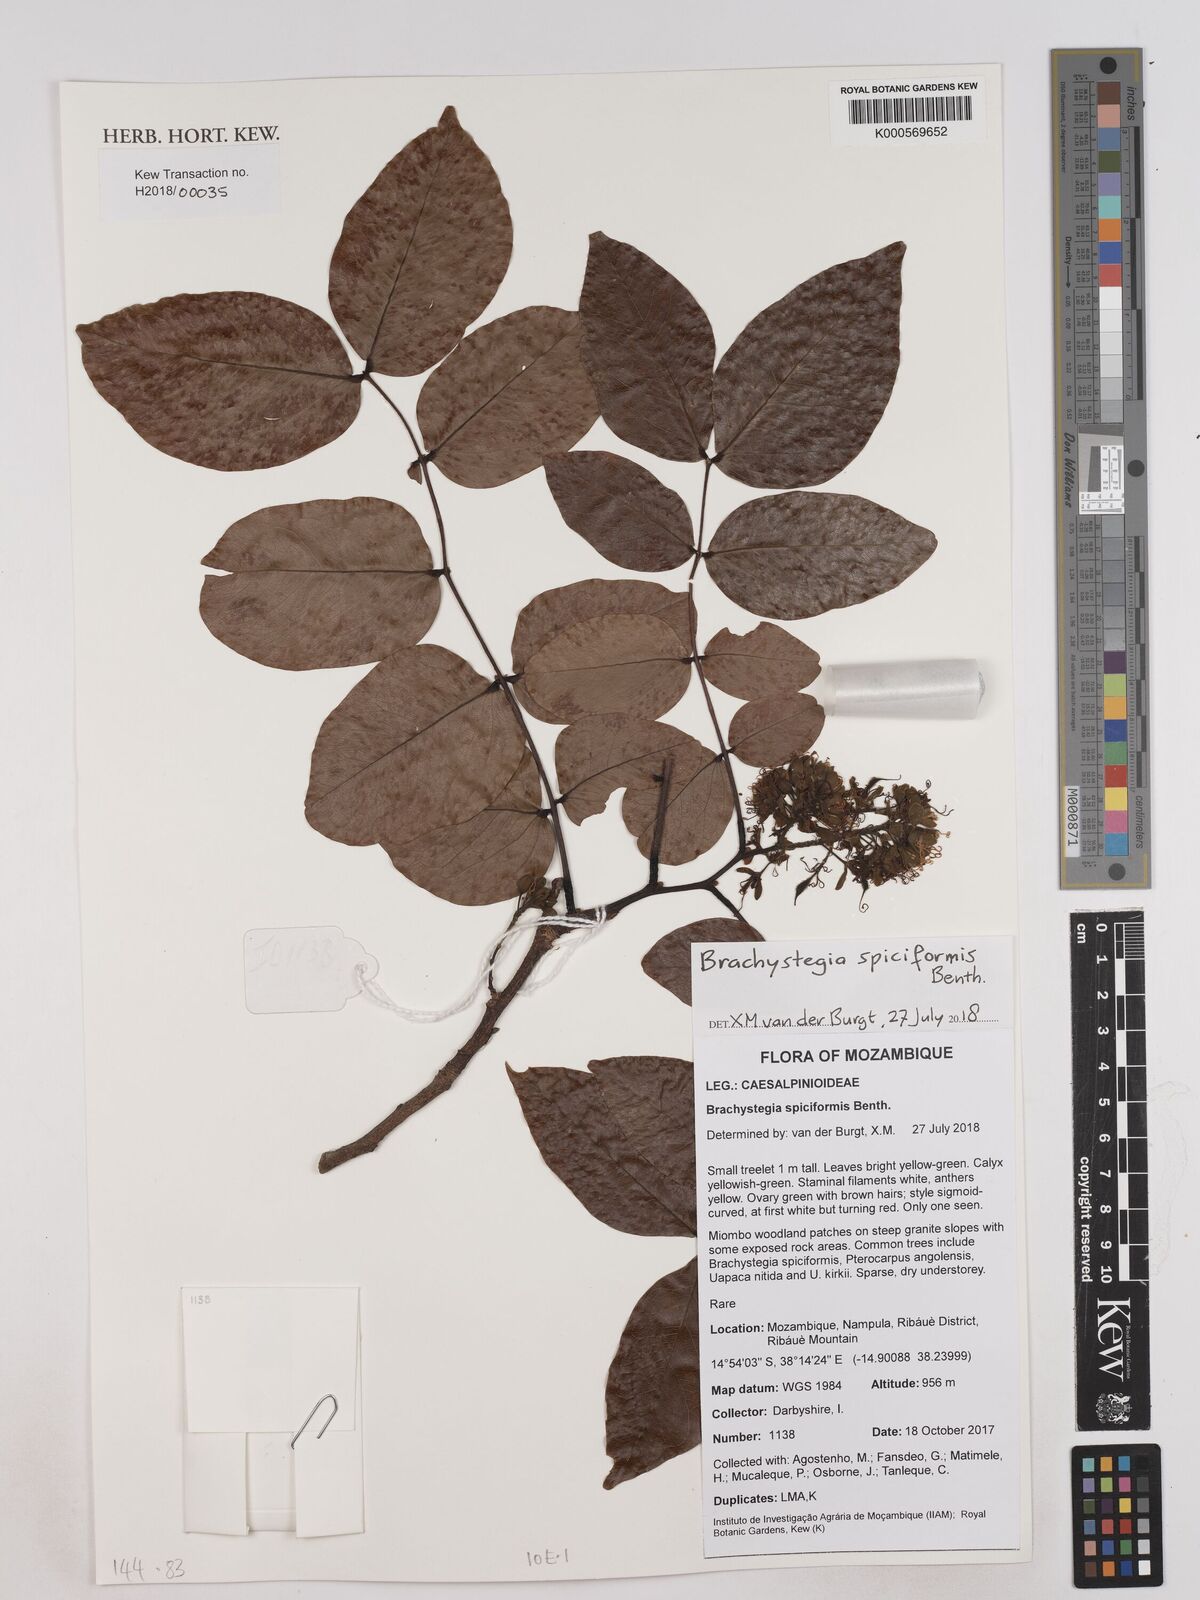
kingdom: Plantae
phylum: Tracheophyta
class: Magnoliopsida
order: Fabales
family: Fabaceae
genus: Brachystegia
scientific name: Brachystegia spiciformis
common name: Zebrawood
